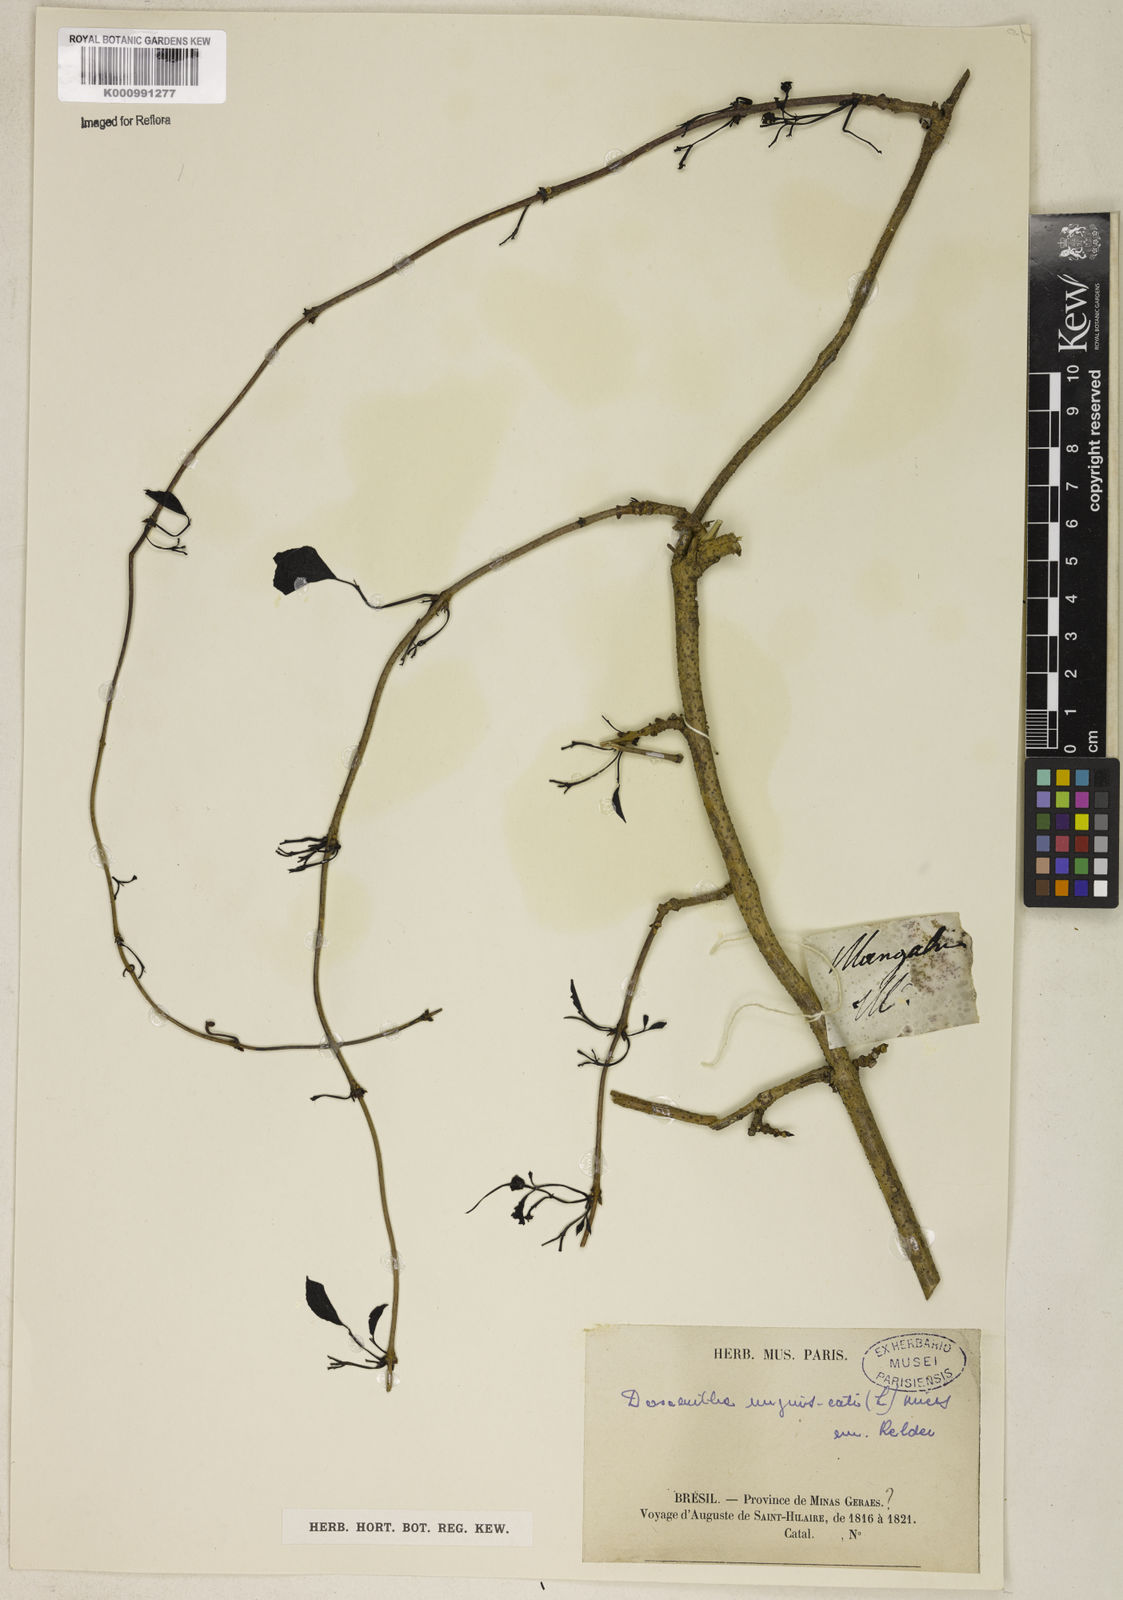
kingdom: Plantae
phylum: Tracheophyta
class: Magnoliopsida
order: Lamiales
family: Bignoniaceae
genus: Dolichandra
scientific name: Dolichandra unguis-cati
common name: Catclaw vine
